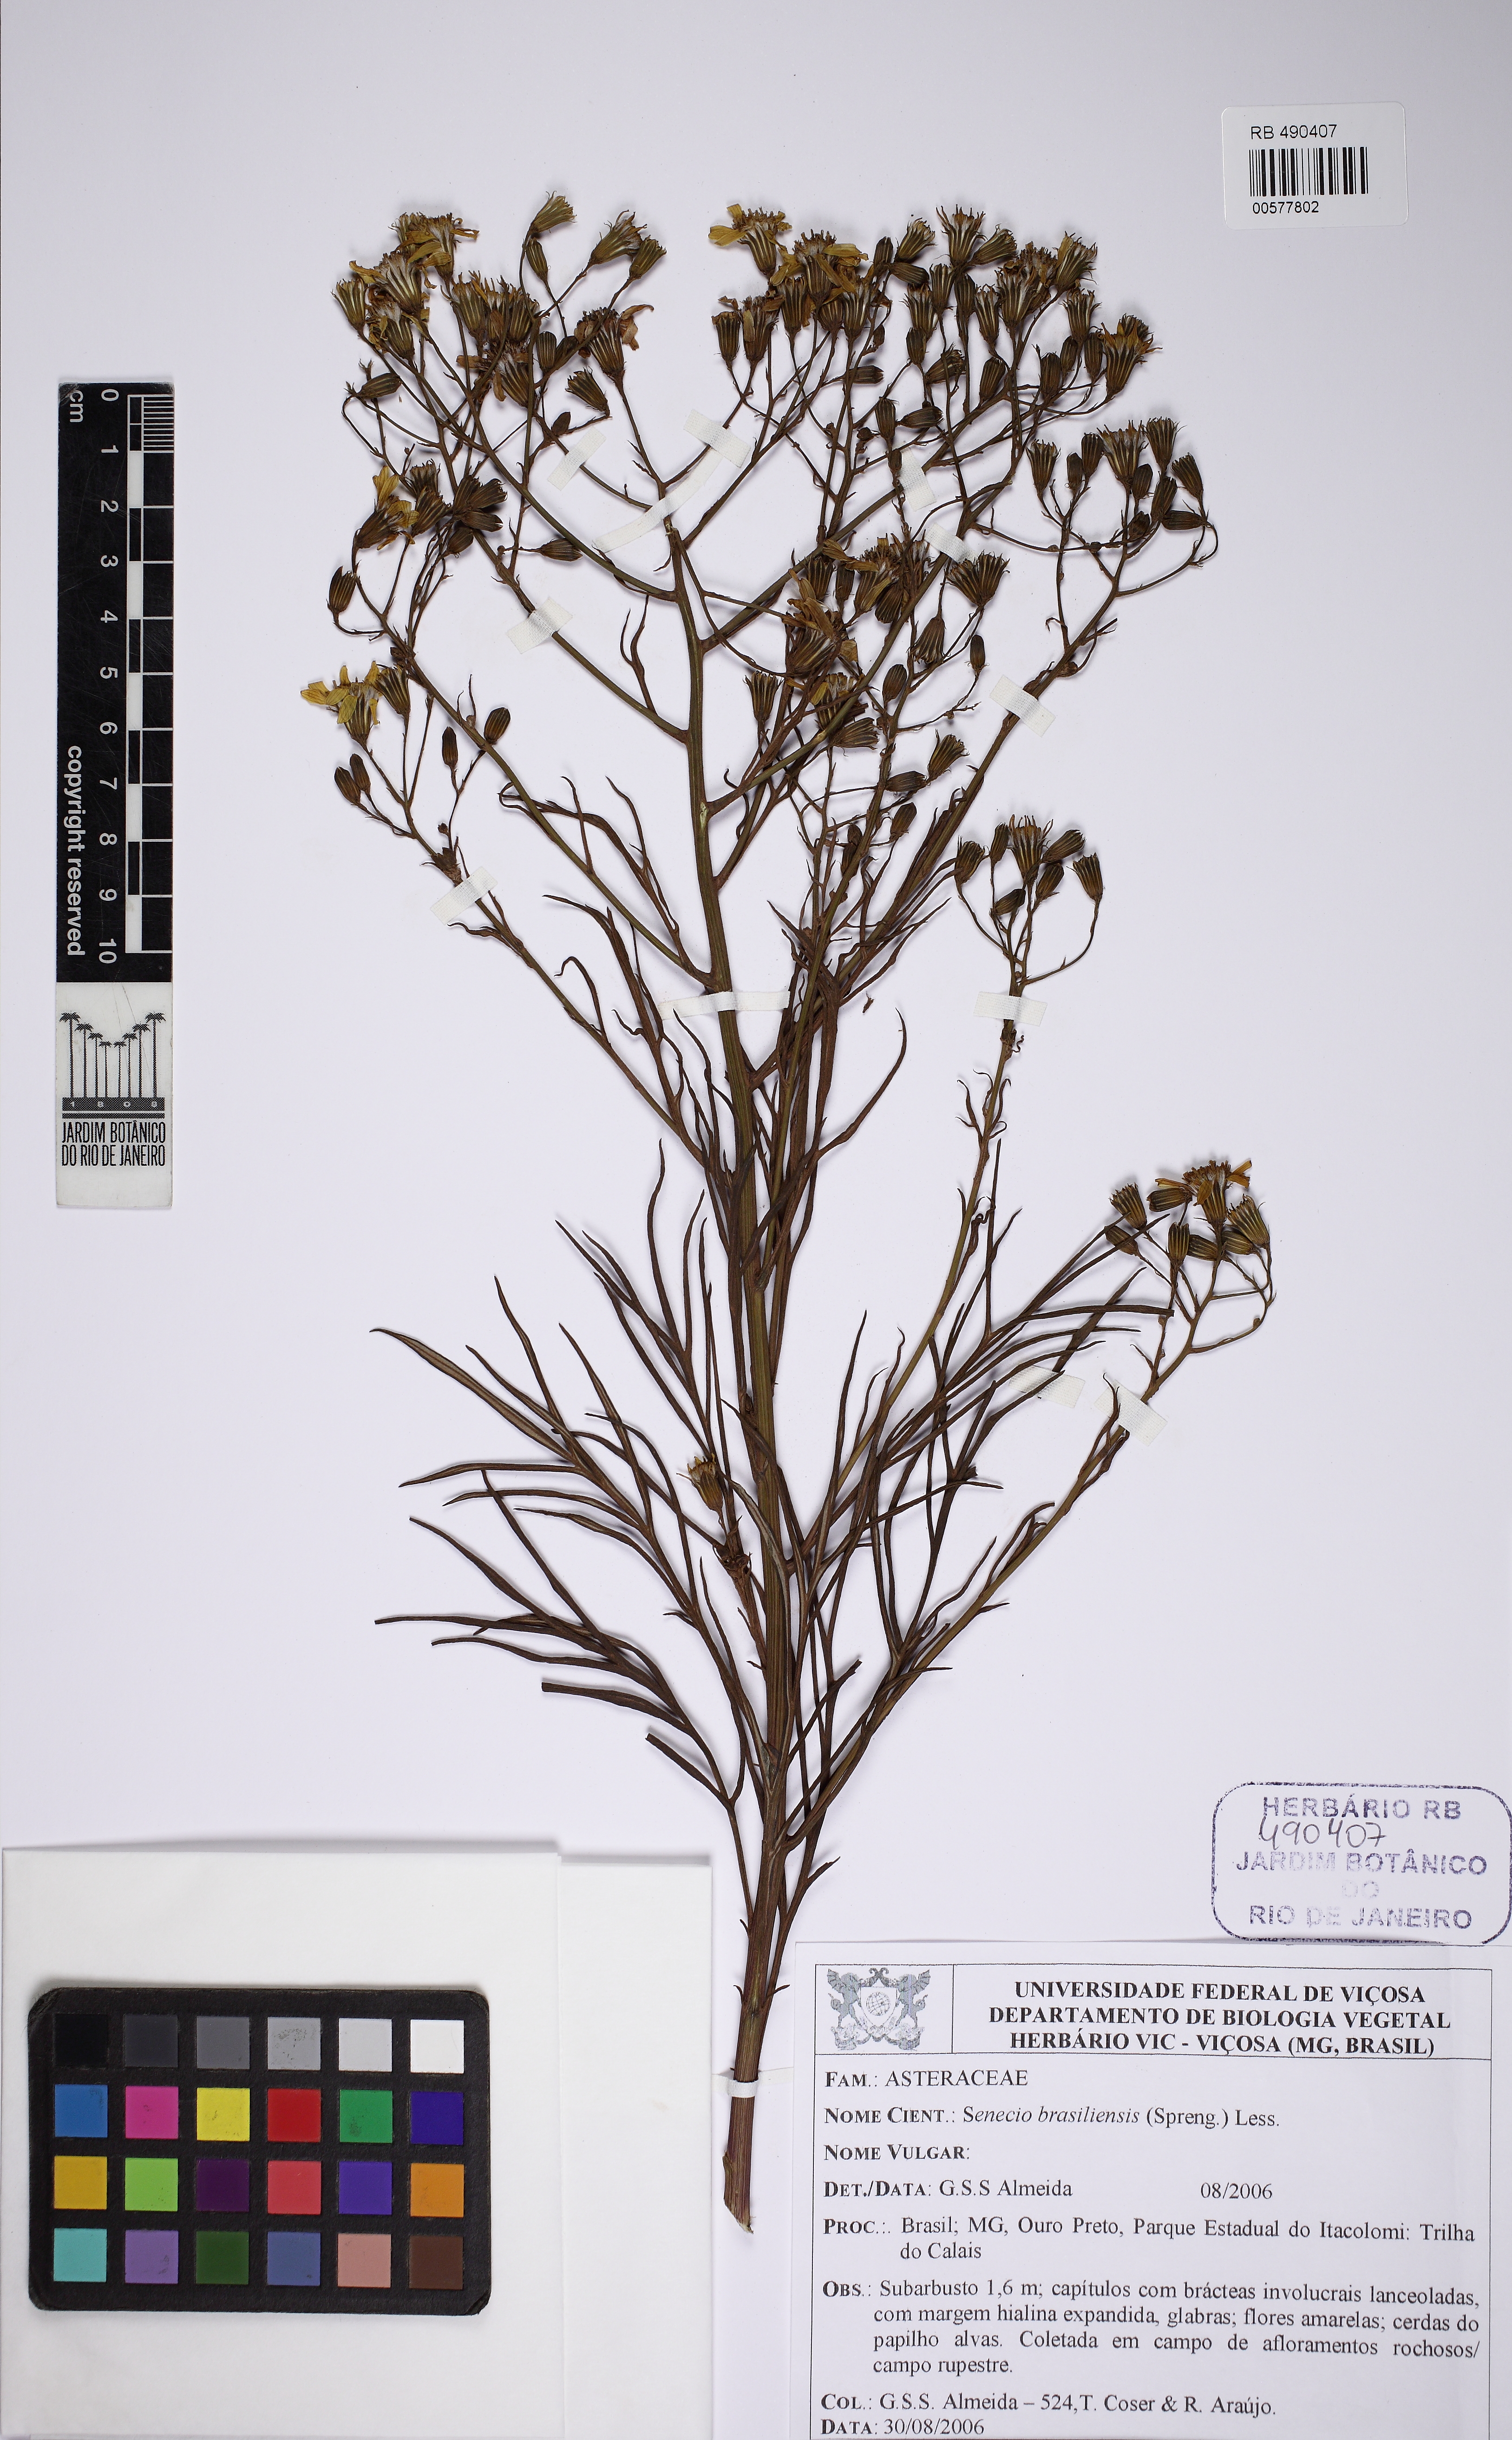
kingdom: Plantae
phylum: Tracheophyta
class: Magnoliopsida
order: Asterales
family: Asteraceae
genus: Senecio
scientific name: Senecio brasiliensis
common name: Hemp-leaf ragwort
